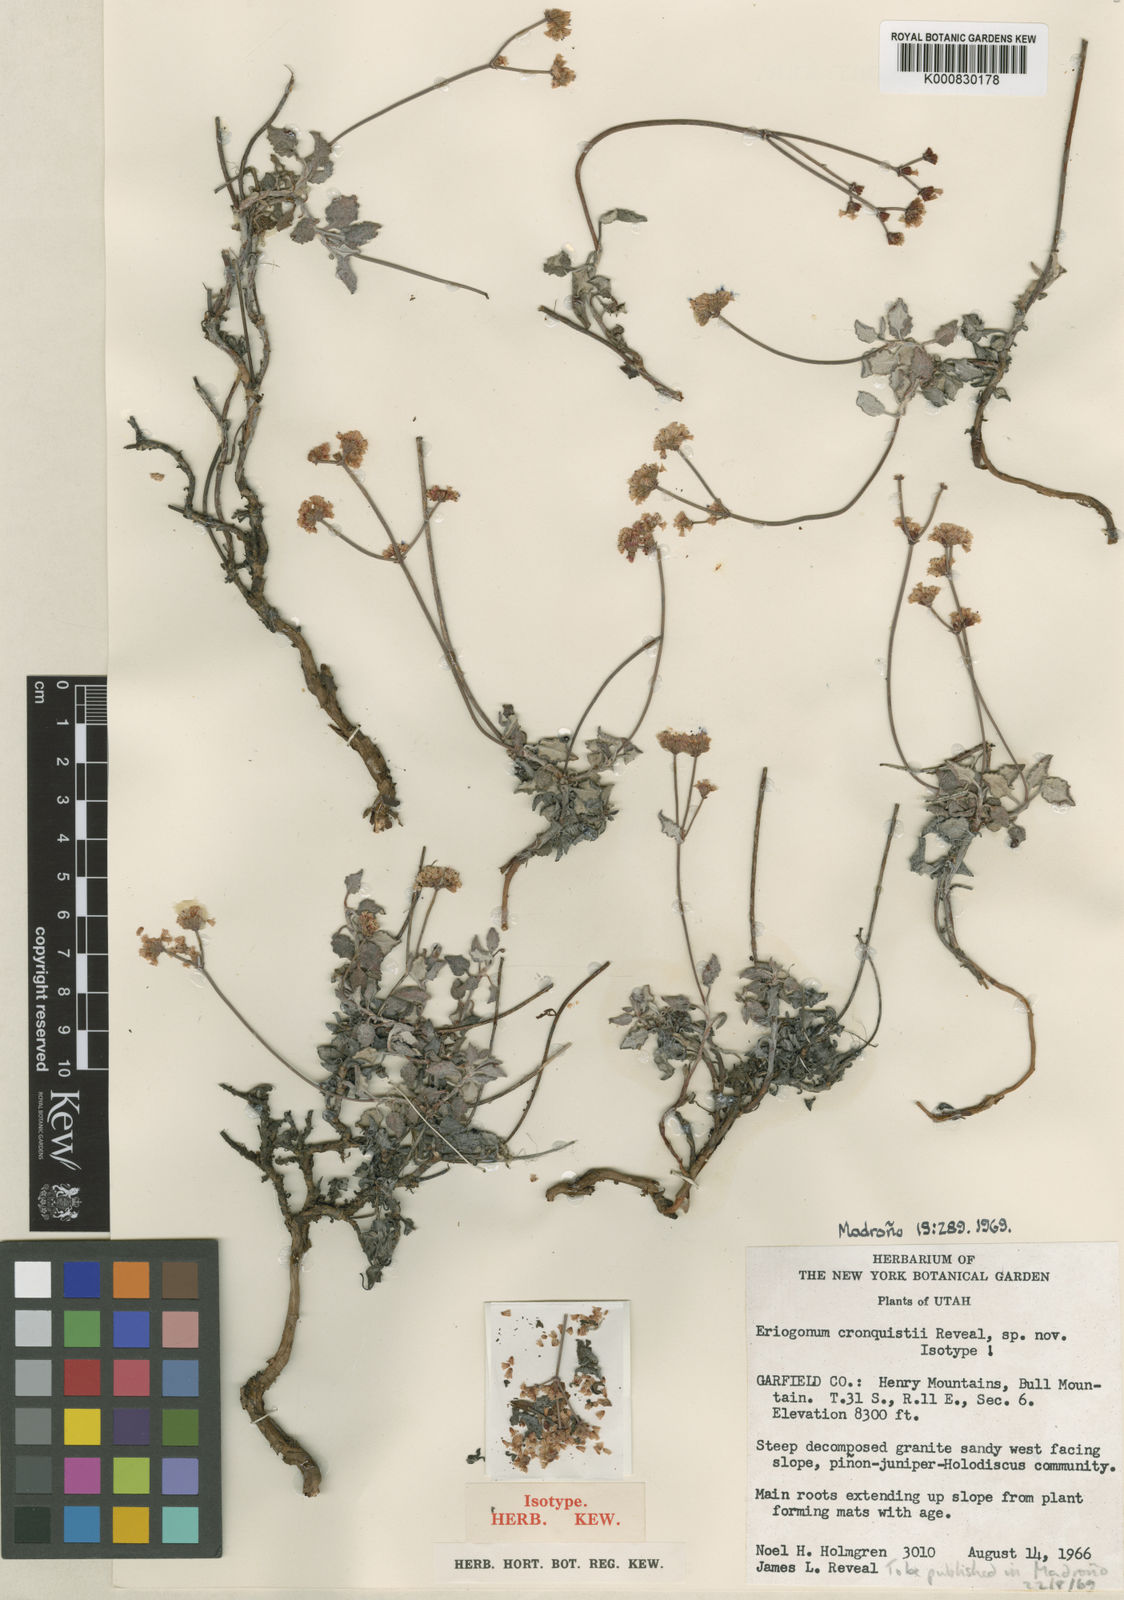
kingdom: Plantae
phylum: Tracheophyta
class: Magnoliopsida
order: Caryophyllales
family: Polygonaceae
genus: Eriogonum
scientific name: Eriogonum cronquistii
